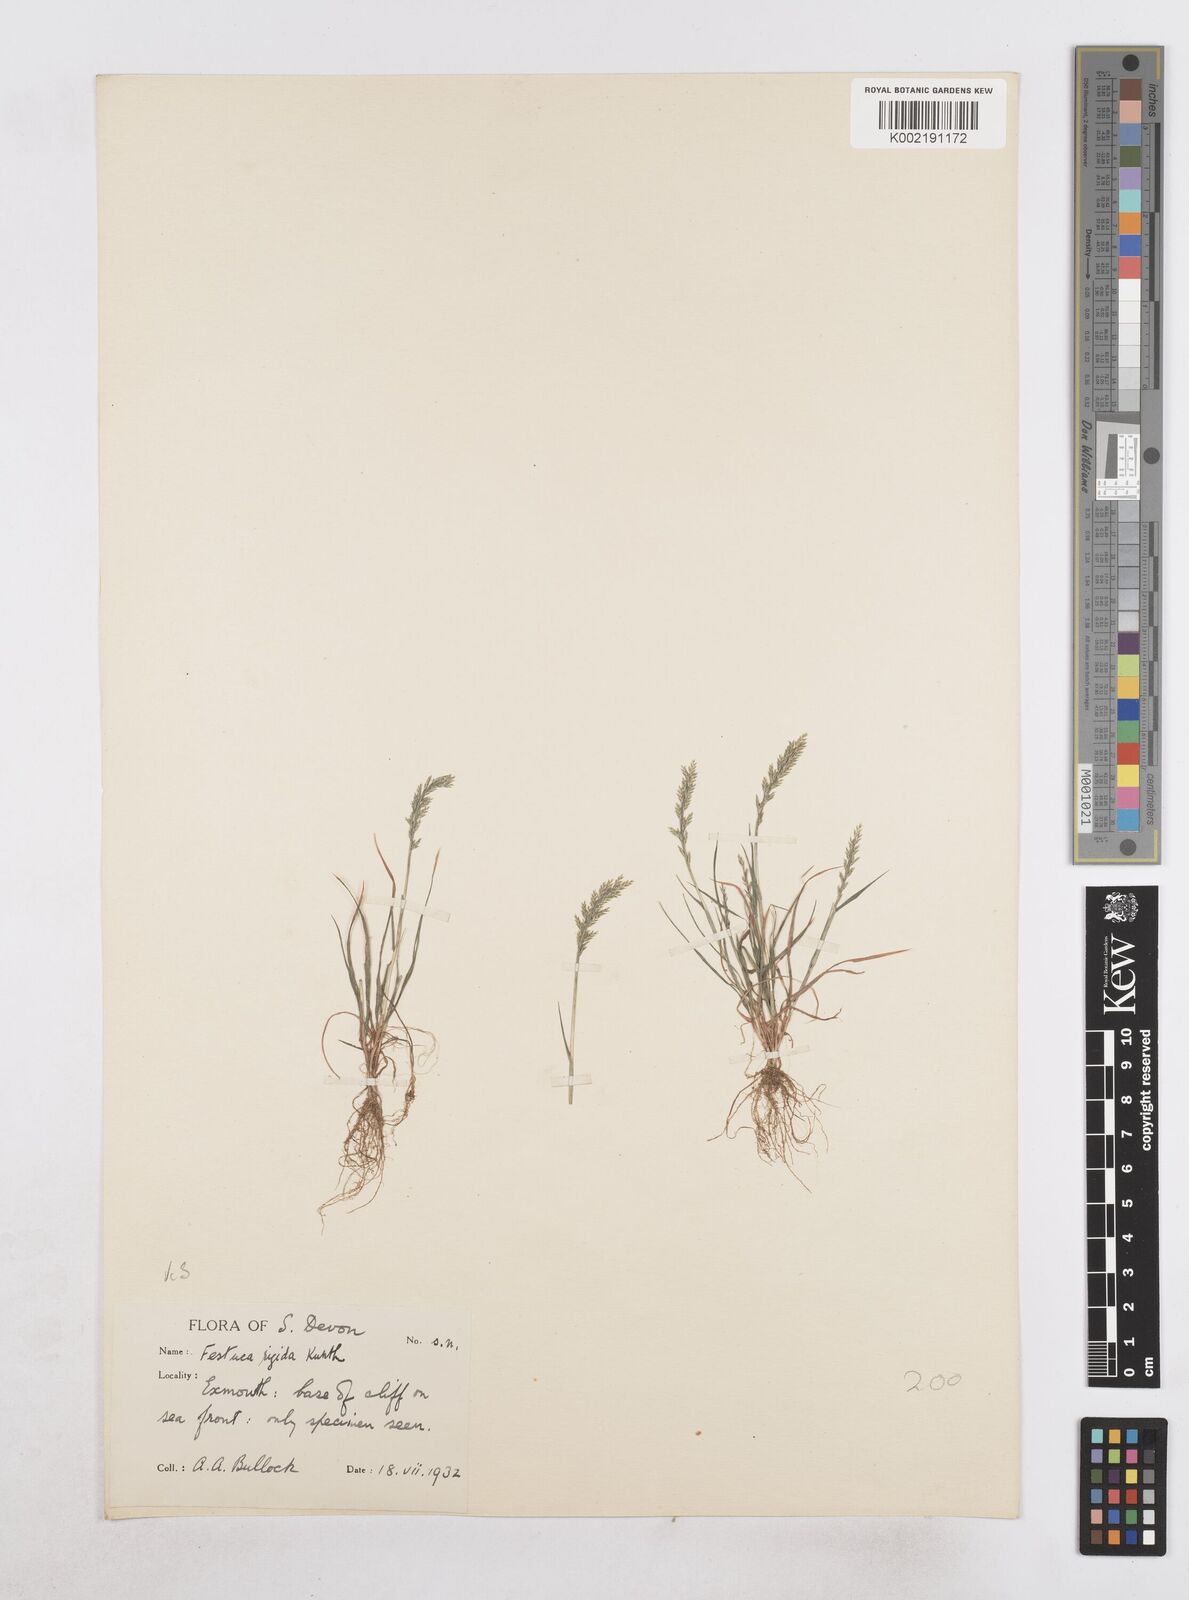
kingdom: Plantae
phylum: Tracheophyta
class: Liliopsida
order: Poales
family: Poaceae
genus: Catapodium
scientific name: Catapodium rigidum
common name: Fern-grass
